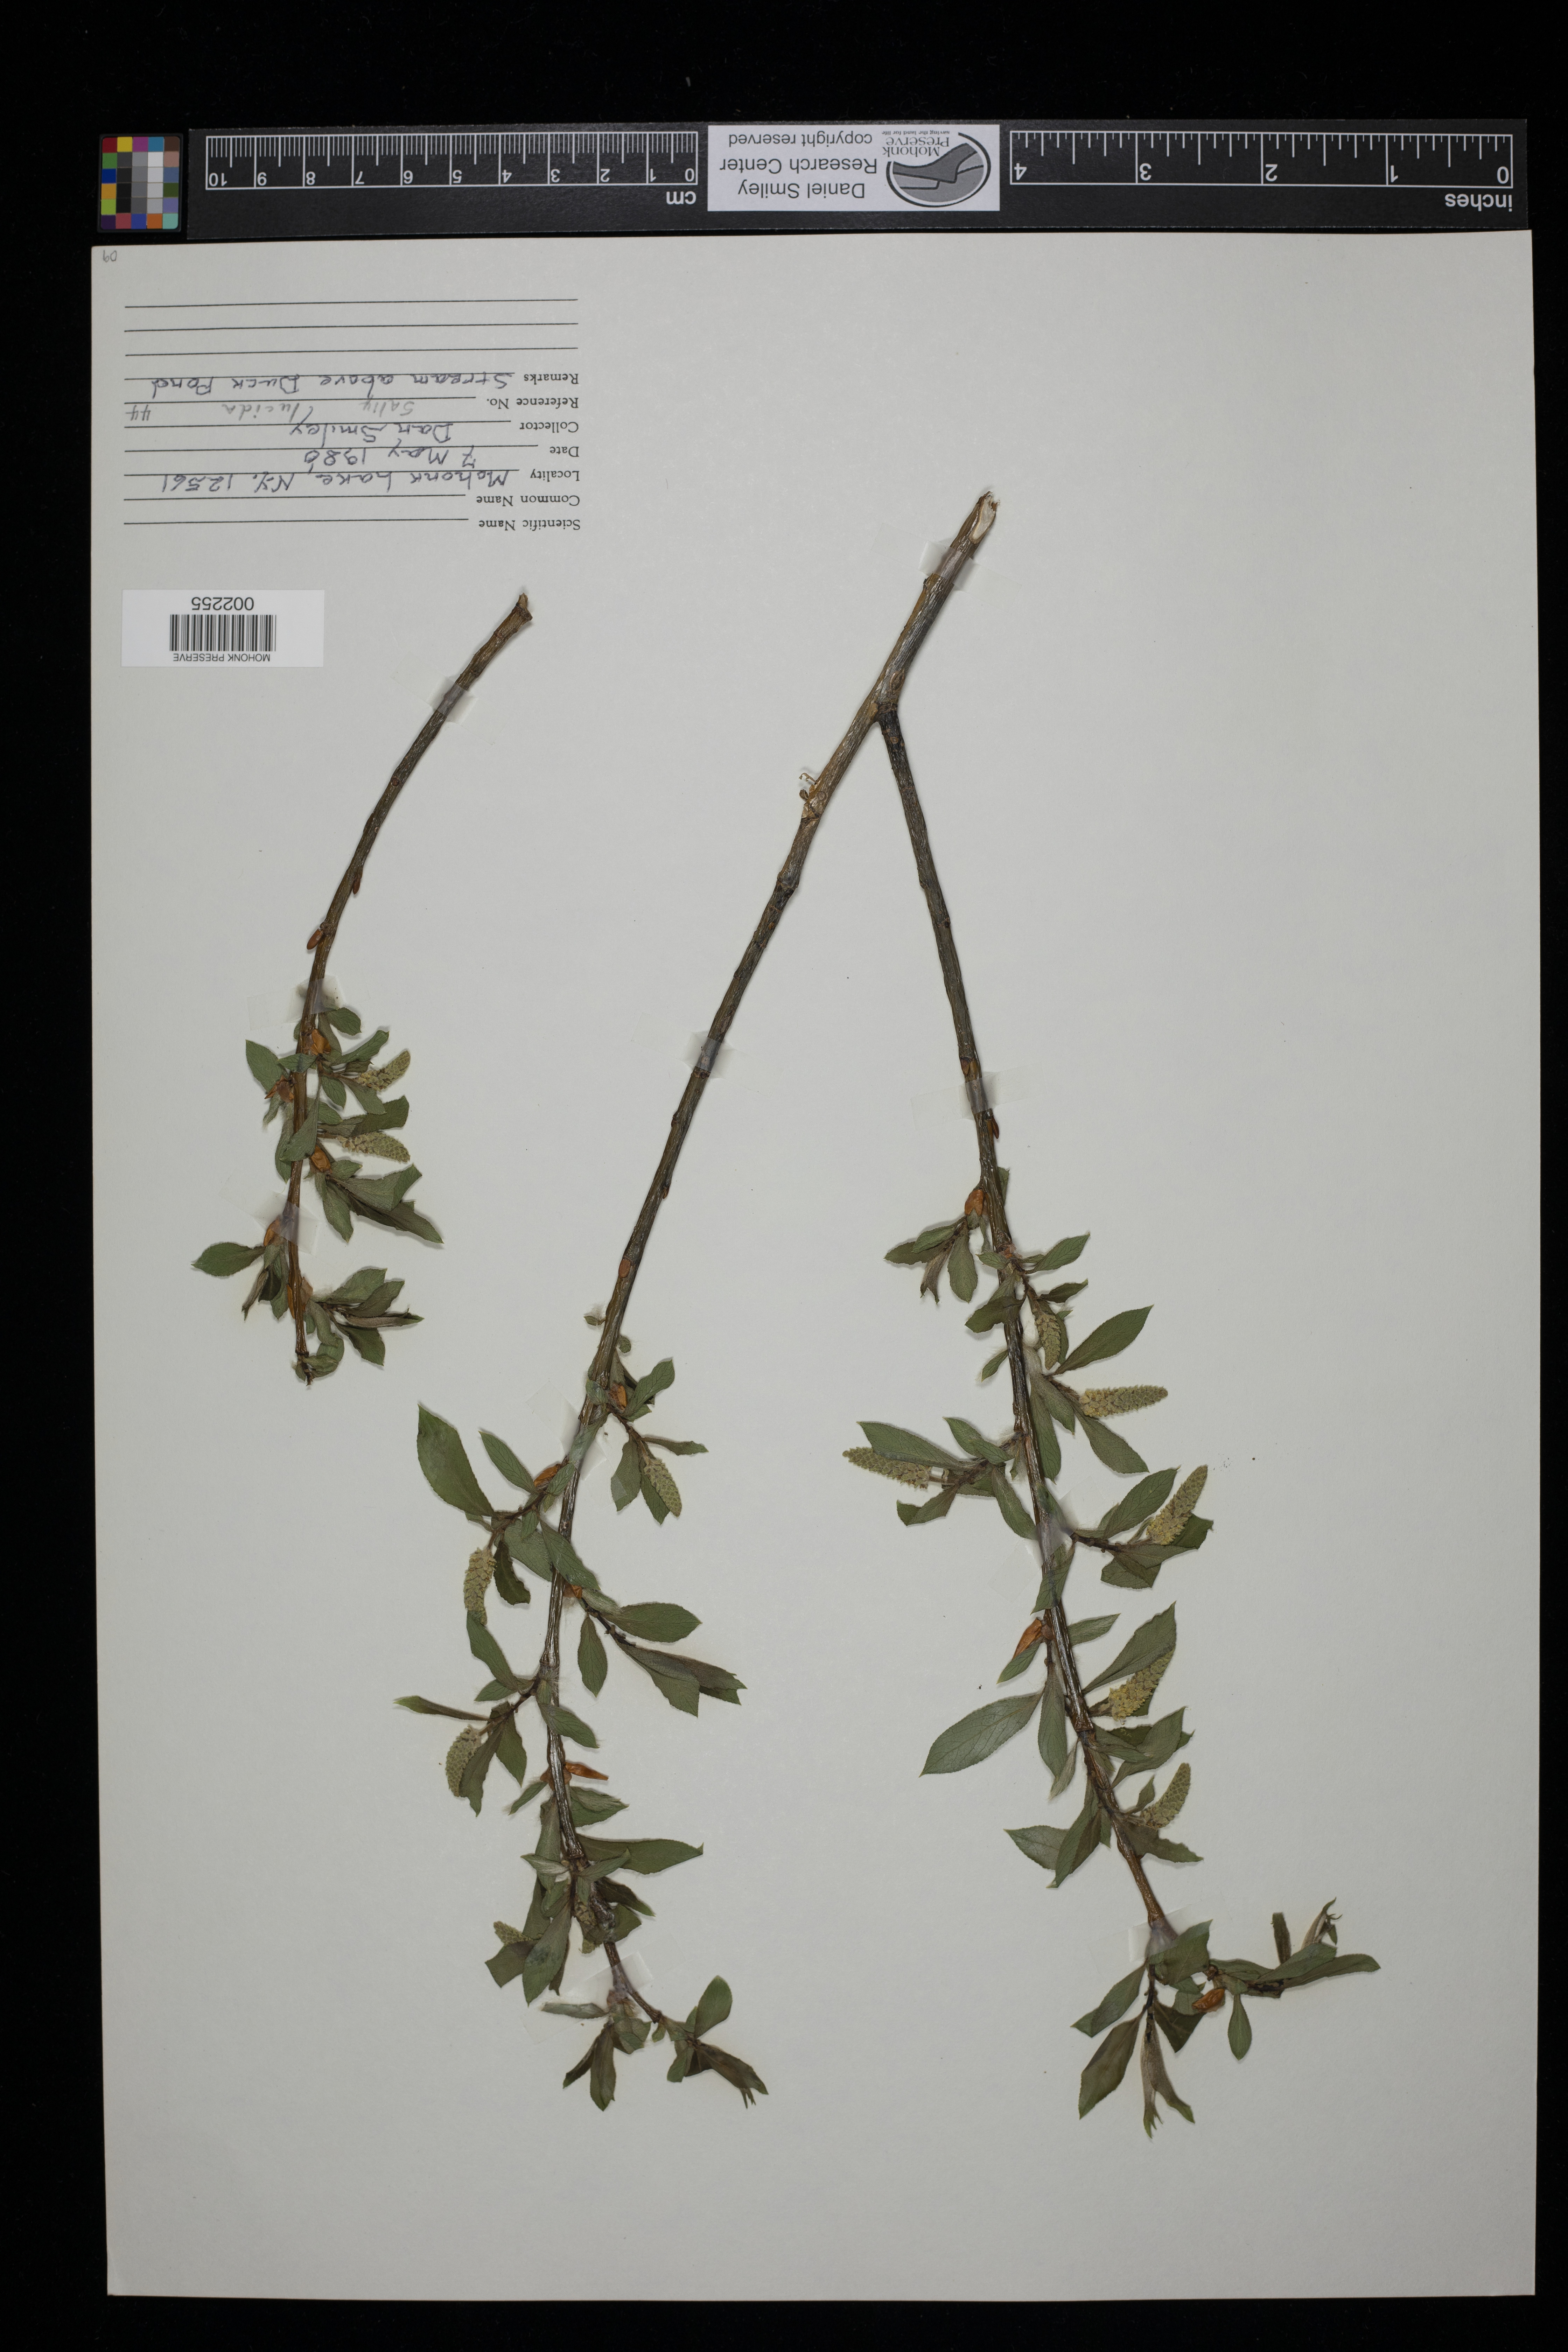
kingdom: Plantae
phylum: Tracheophyta
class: Magnoliopsida
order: Malpighiales
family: Salicaceae
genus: Salix
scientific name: Salix lucida
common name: Shining willow
